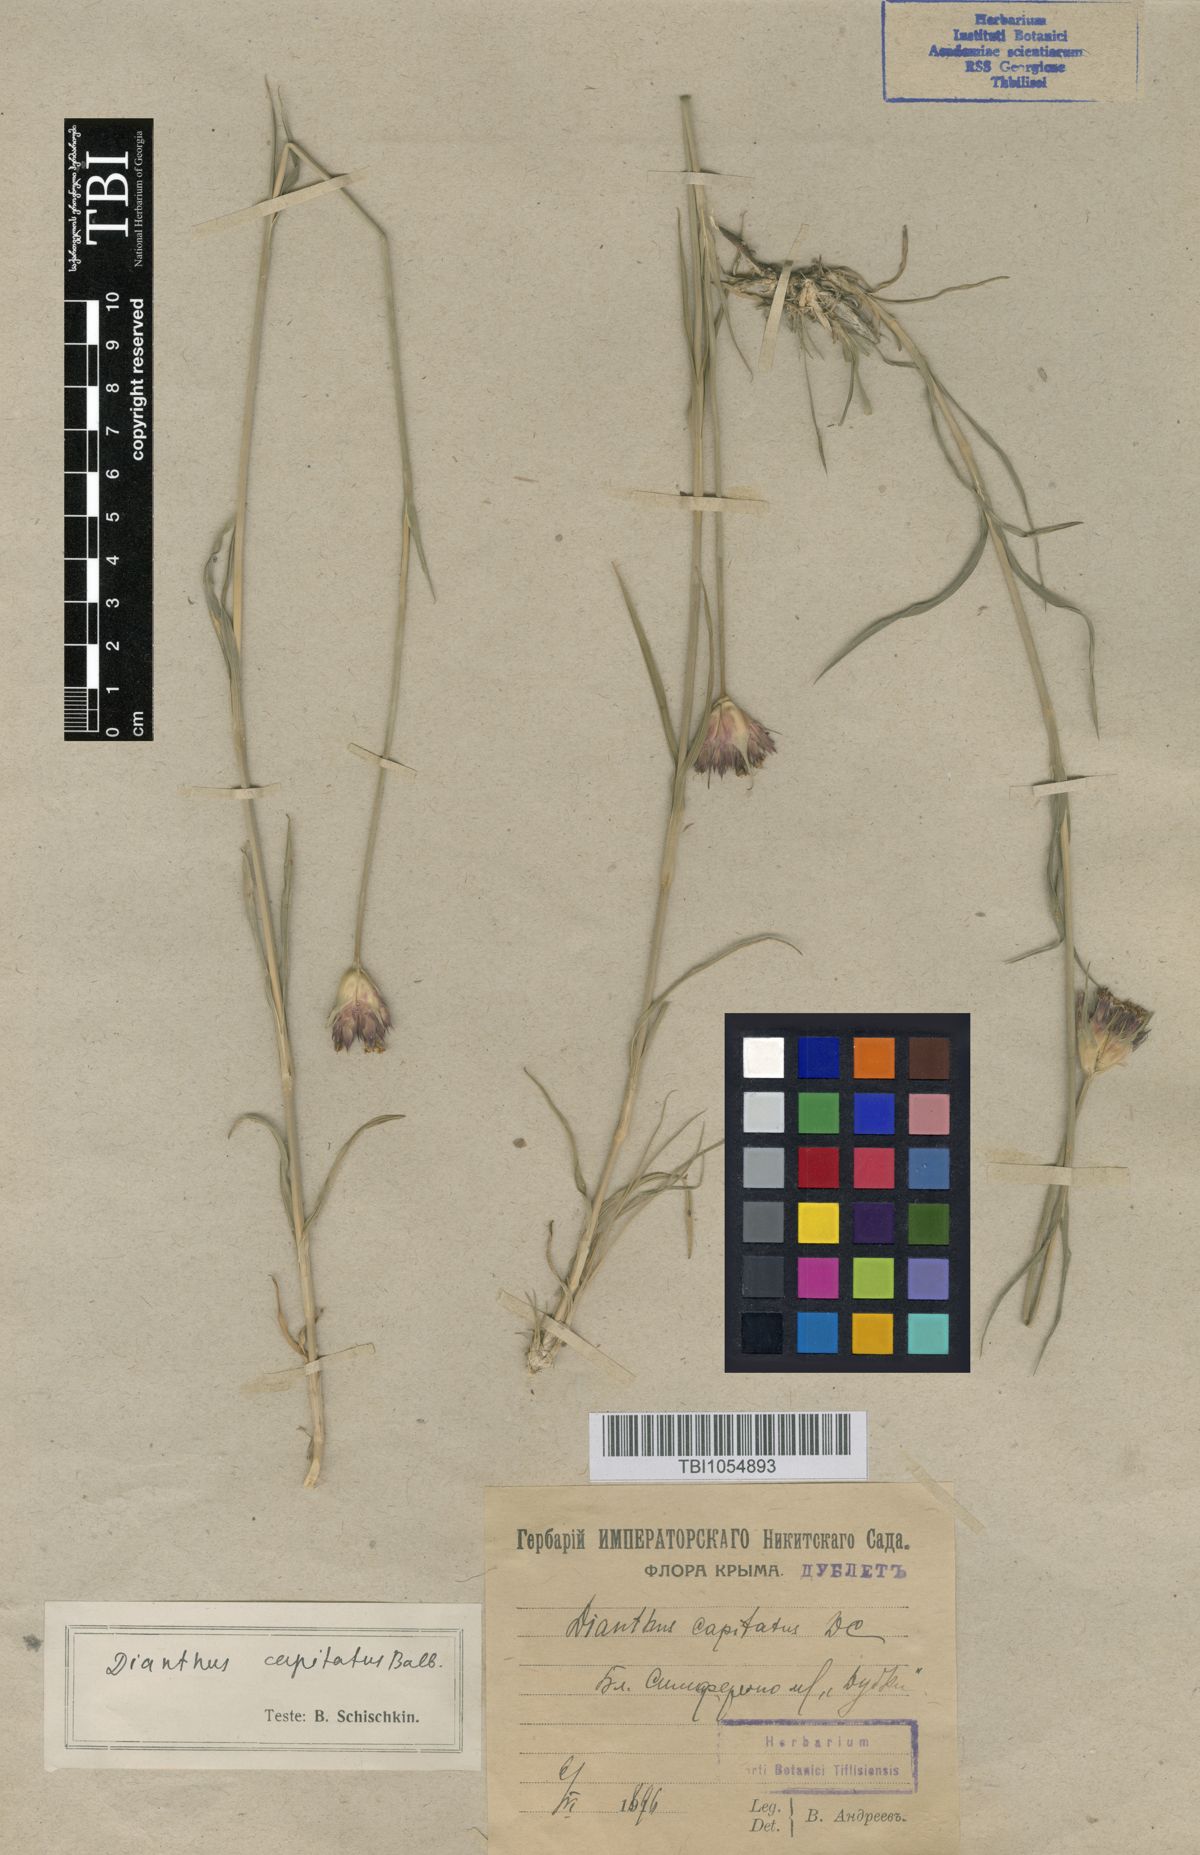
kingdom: Plantae
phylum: Tracheophyta
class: Magnoliopsida
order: Caryophyllales
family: Caryophyllaceae
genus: Dianthus
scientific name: Dianthus capitatus
